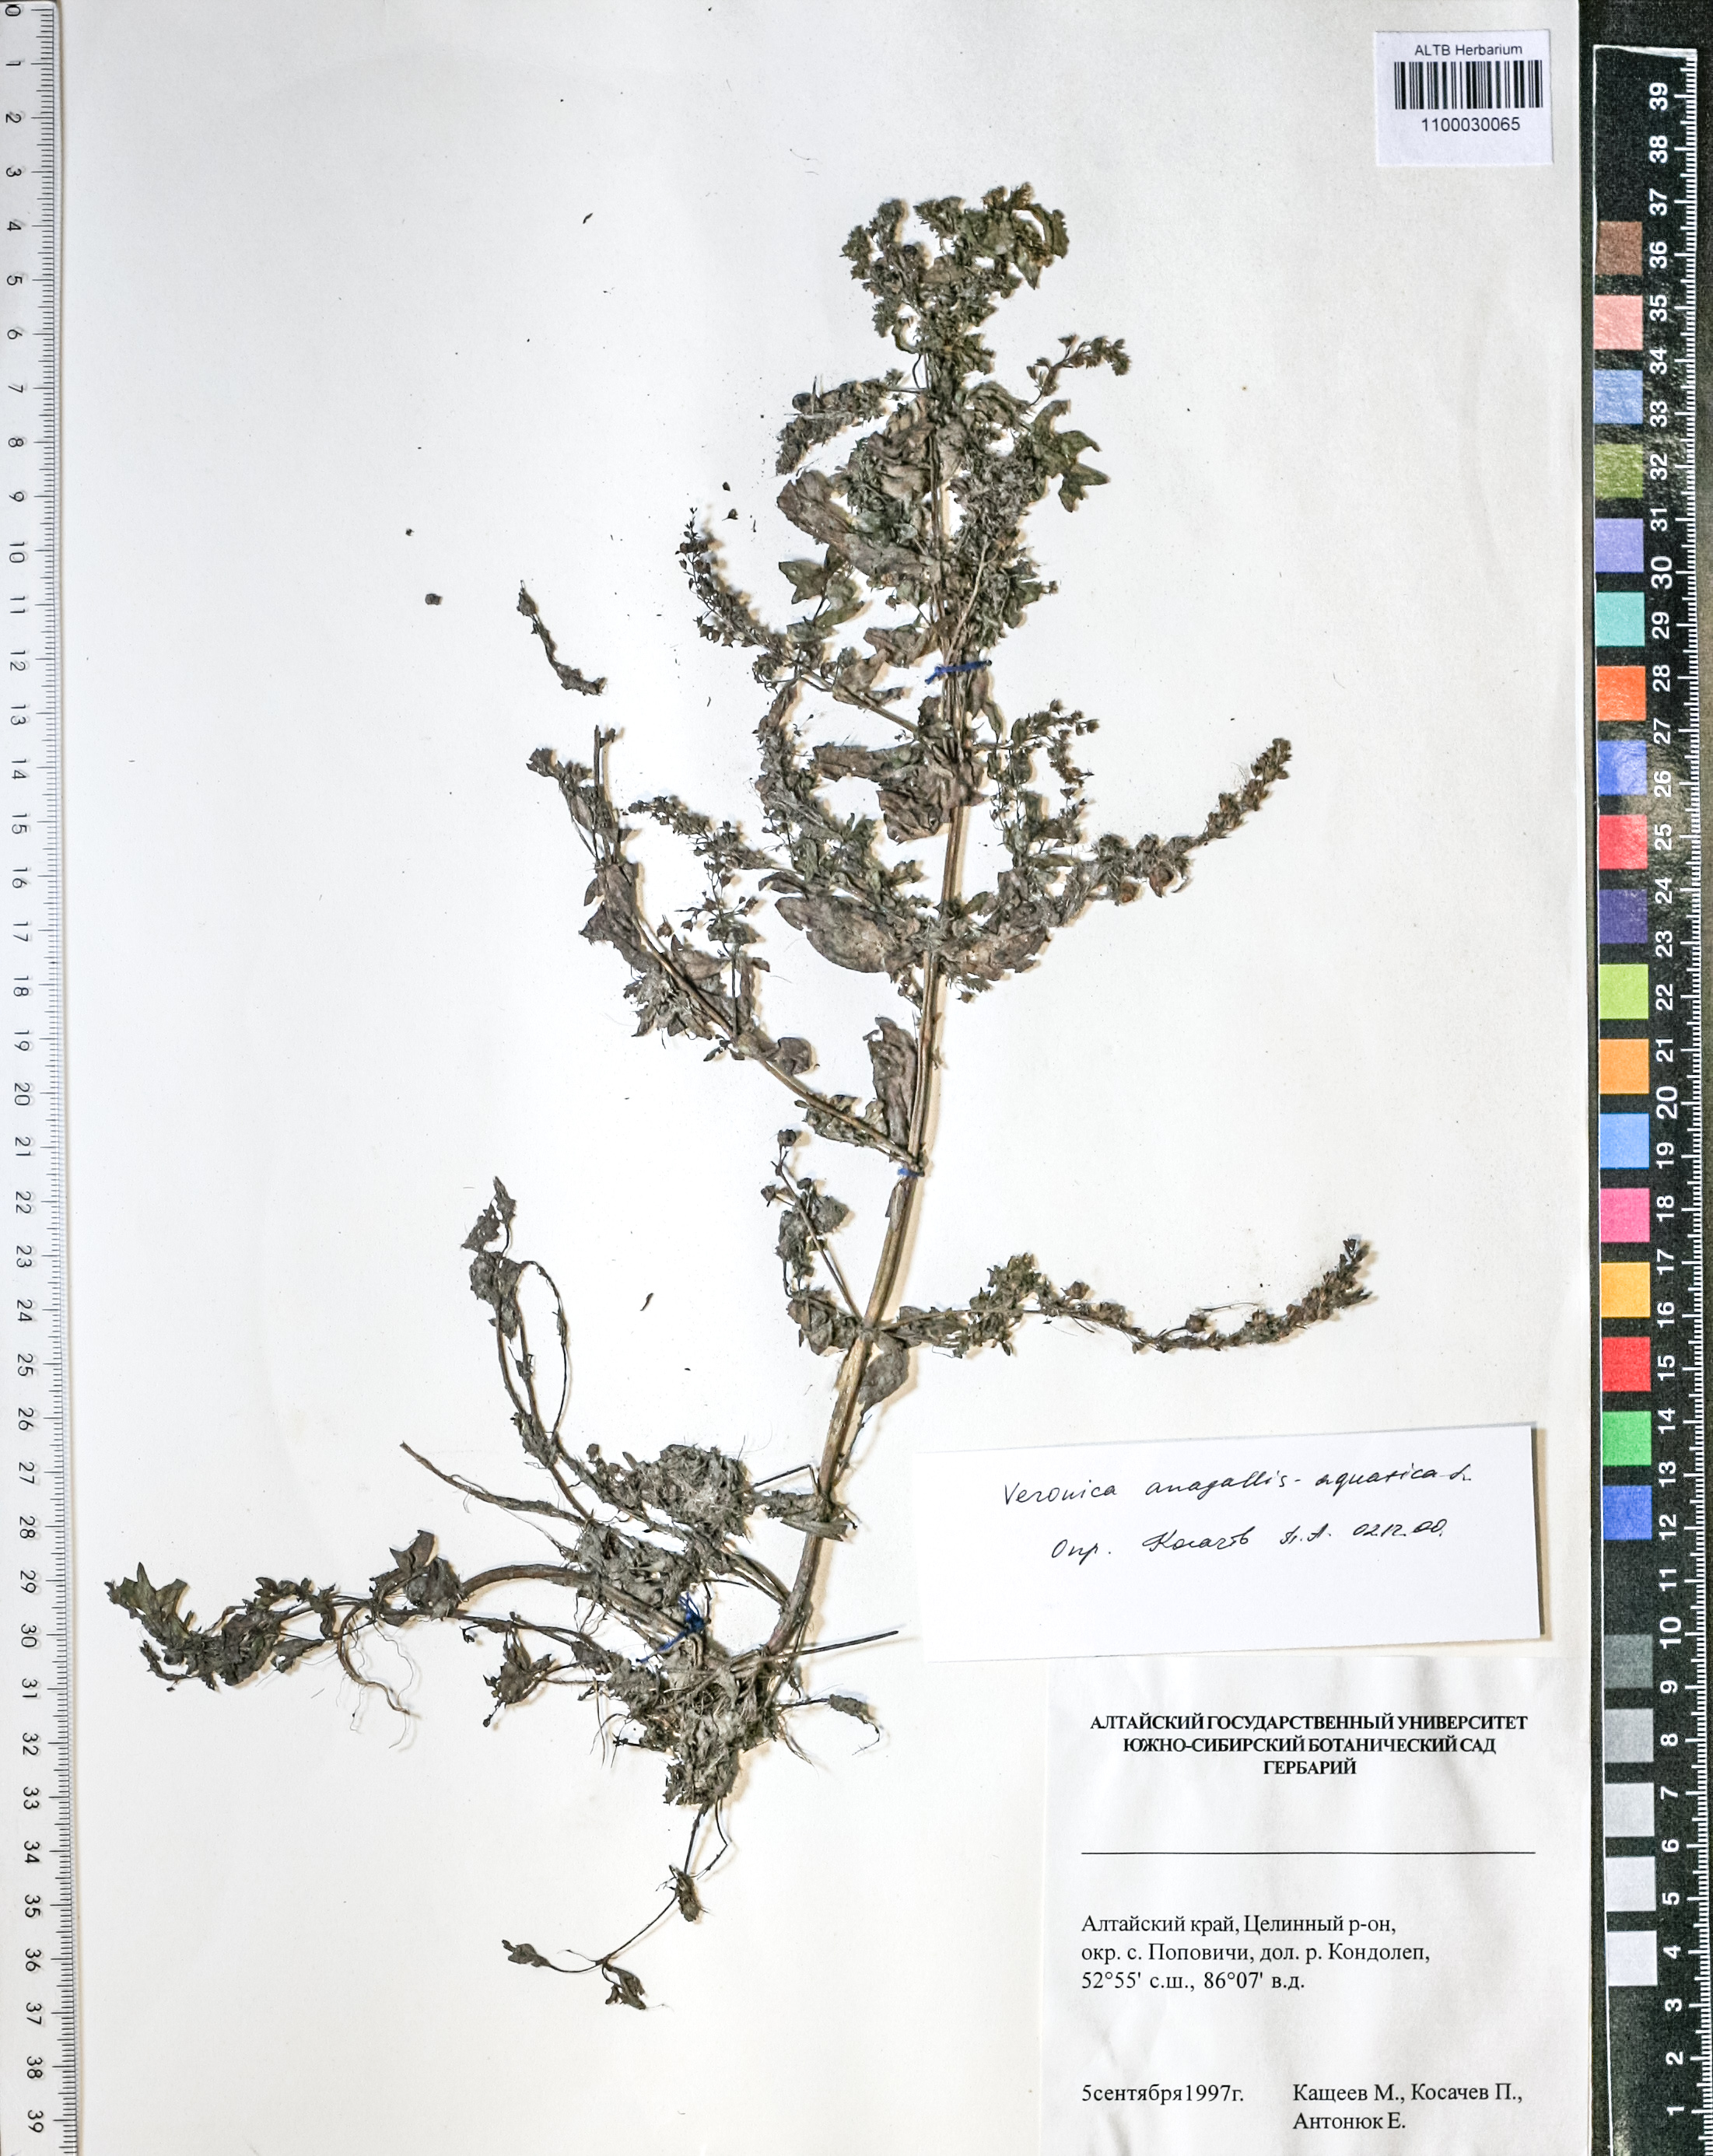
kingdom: Plantae
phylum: Tracheophyta
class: Magnoliopsida
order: Lamiales
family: Plantaginaceae
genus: Veronica
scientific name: Veronica anagallis-aquatica
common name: Water speedwell
